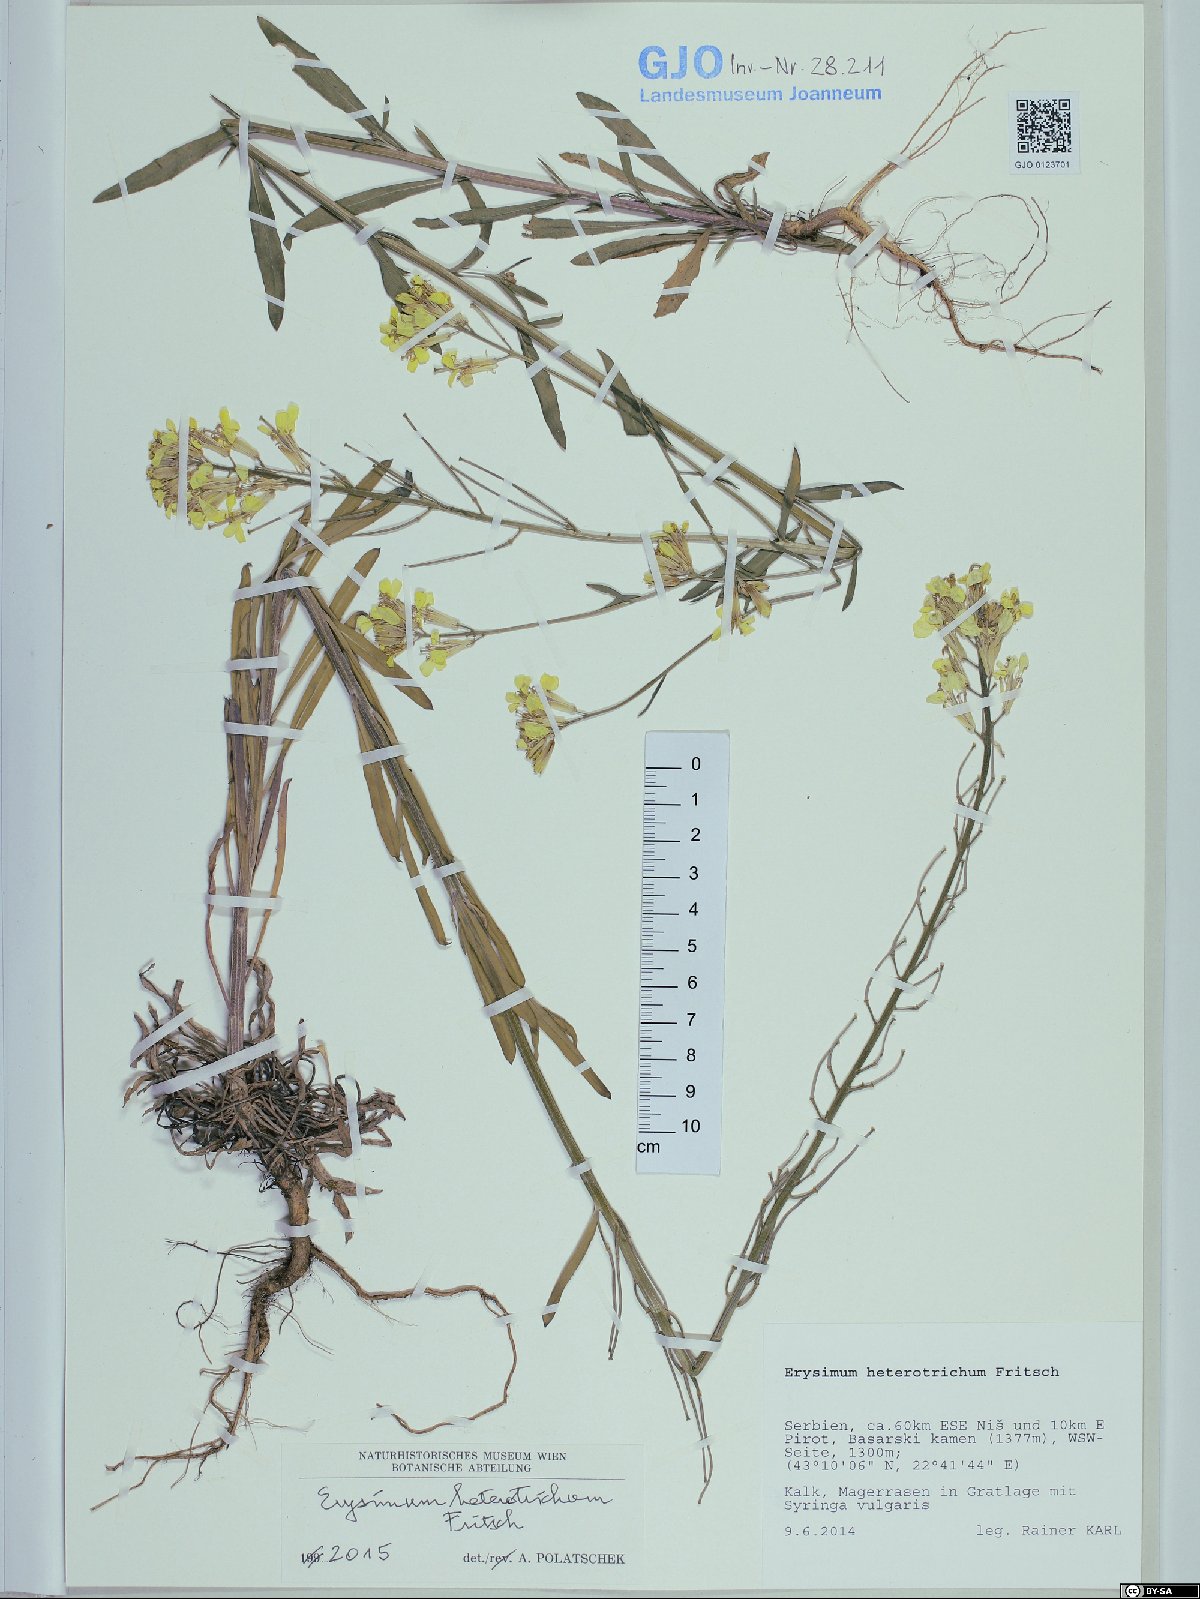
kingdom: Plantae
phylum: Tracheophyta
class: Magnoliopsida
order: Brassicales
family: Brassicaceae
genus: Erysimum
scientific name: Erysimum heterotrichum
